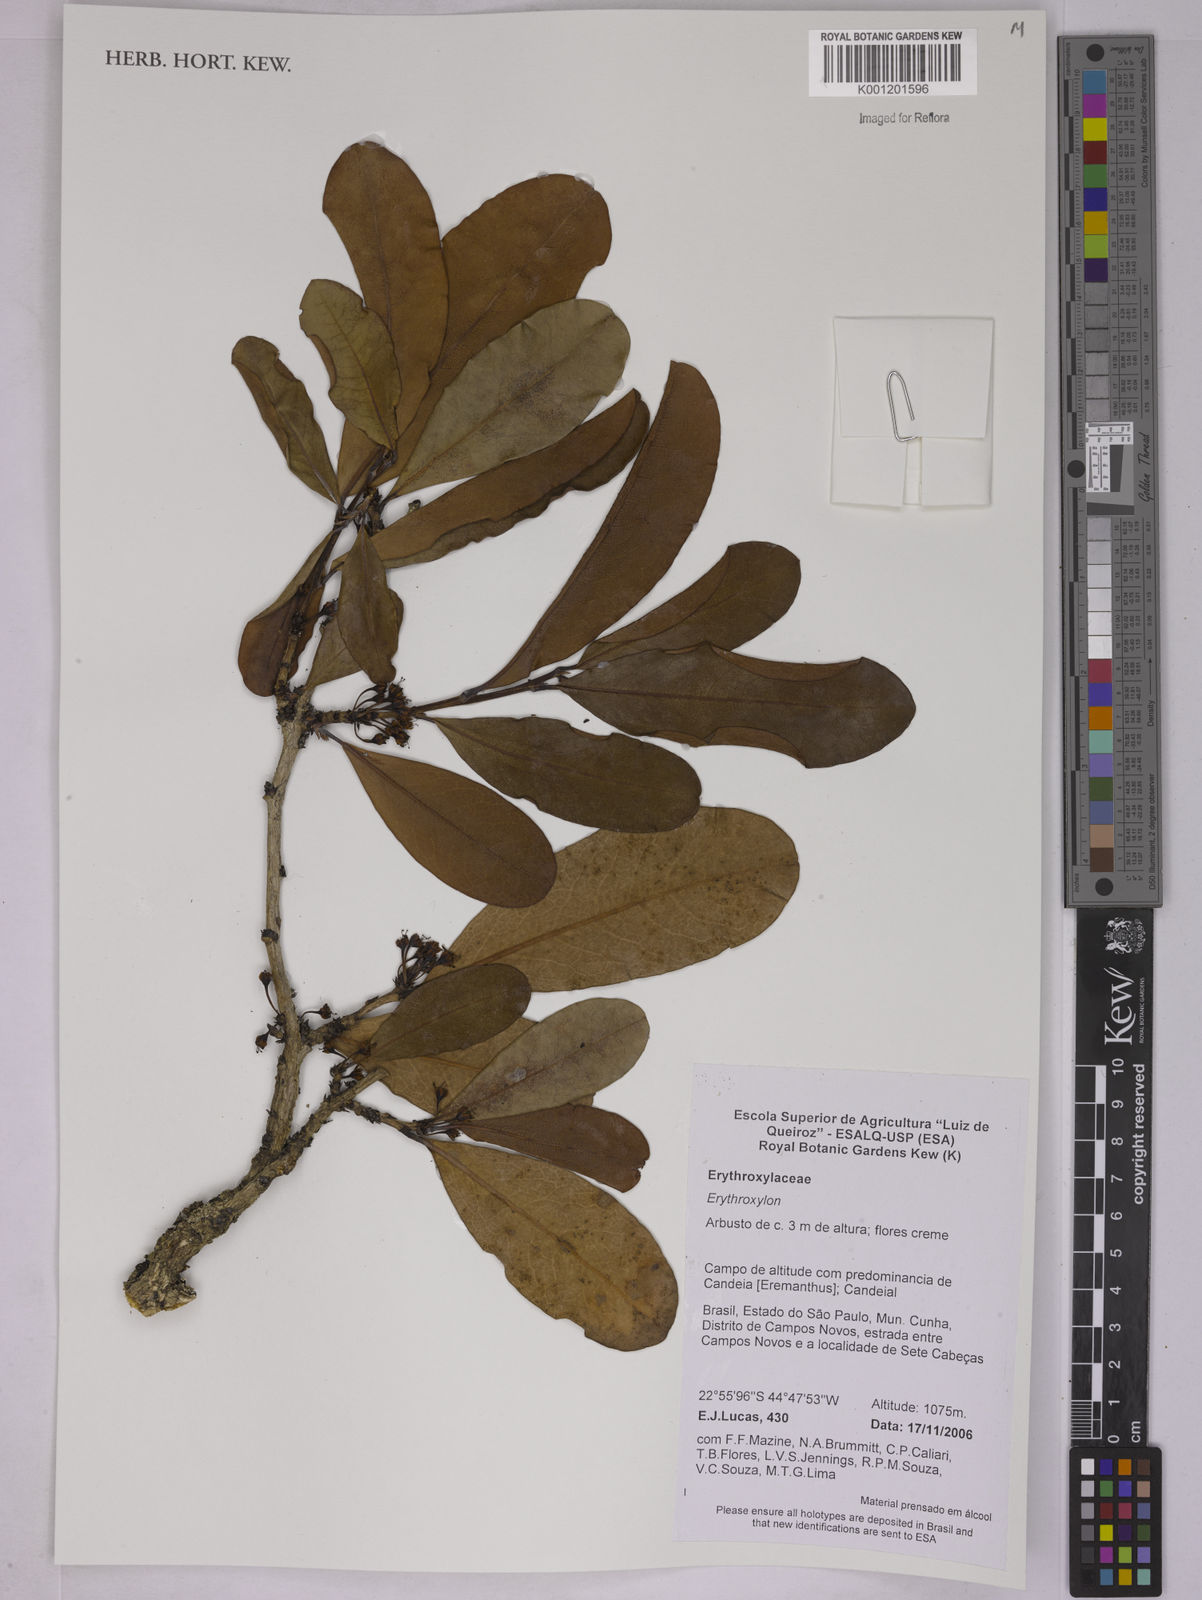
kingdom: Plantae
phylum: Tracheophyta
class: Magnoliopsida
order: Malpighiales
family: Erythroxylaceae
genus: Erythroxylum
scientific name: Erythroxylum
